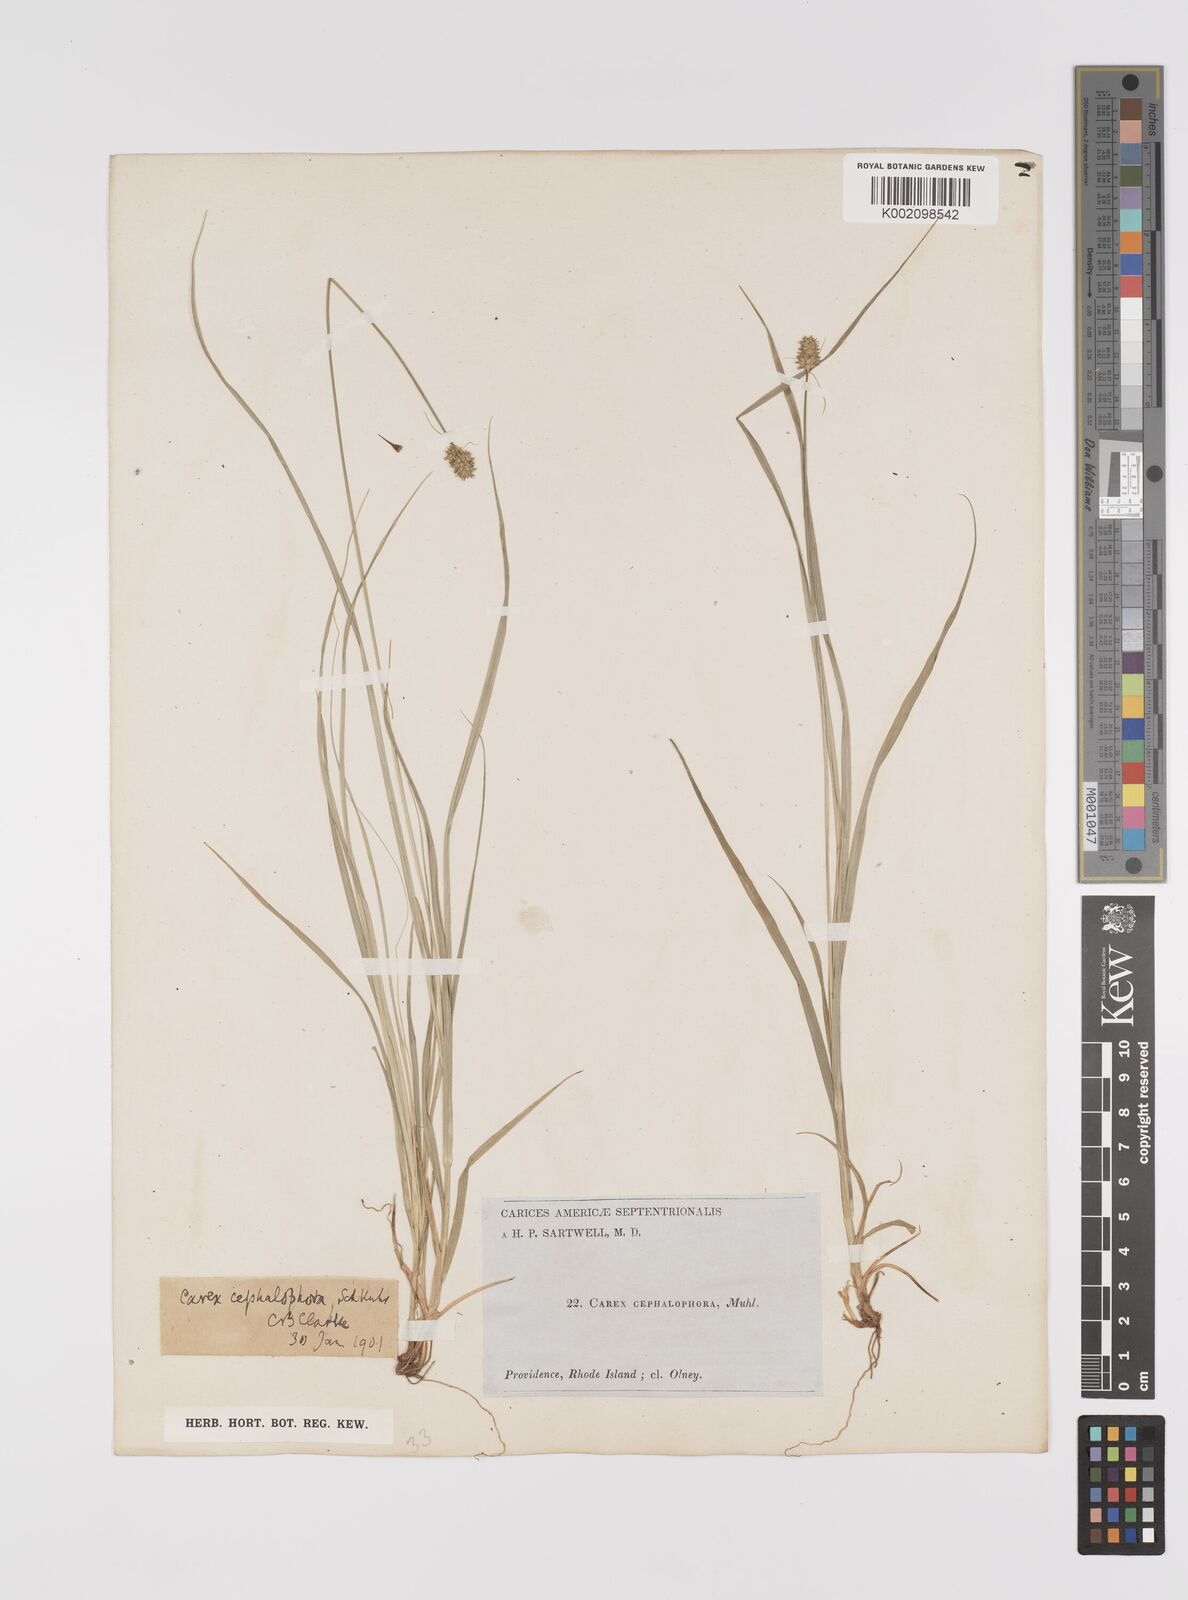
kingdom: Plantae
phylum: Tracheophyta
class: Liliopsida
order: Poales
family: Cyperaceae
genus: Carex
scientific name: Carex cephalophora
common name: Oval-headed sedge
